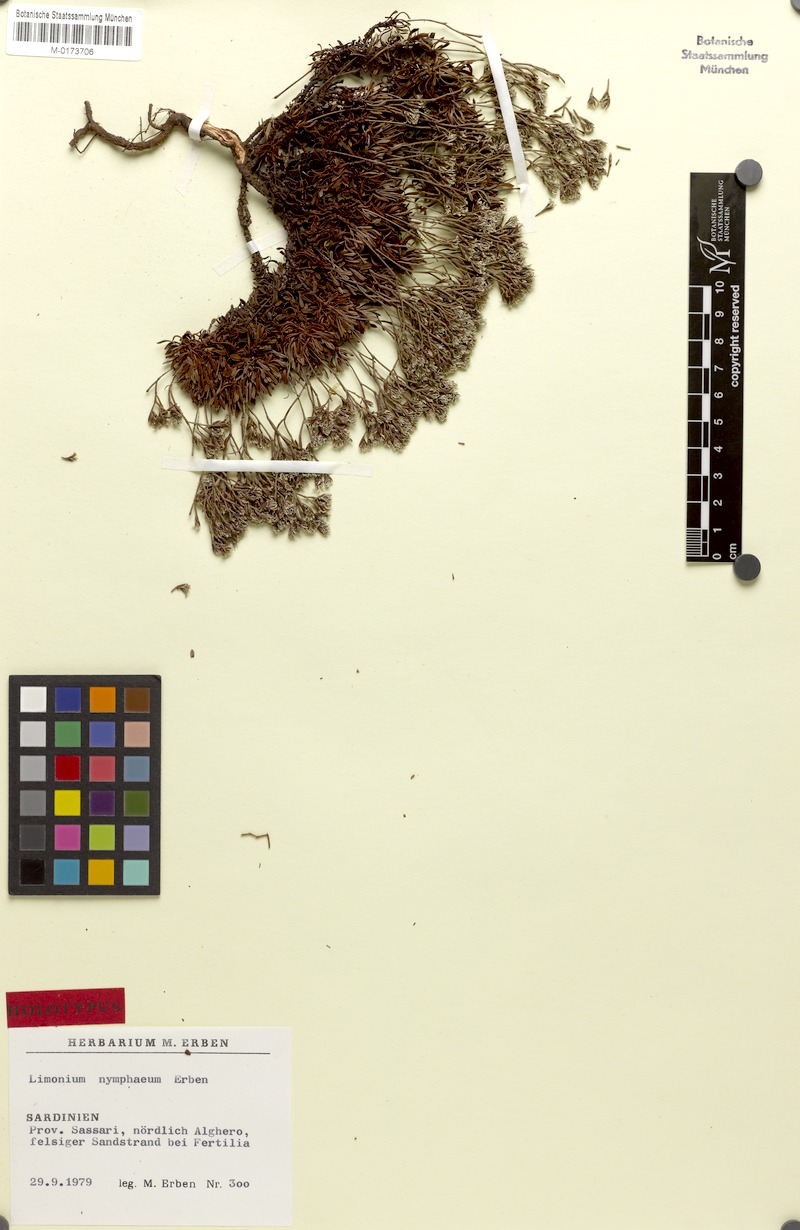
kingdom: Plantae
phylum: Tracheophyta
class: Magnoliopsida
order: Caryophyllales
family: Plumbaginaceae
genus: Limonium
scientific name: Limonium acutifolium
